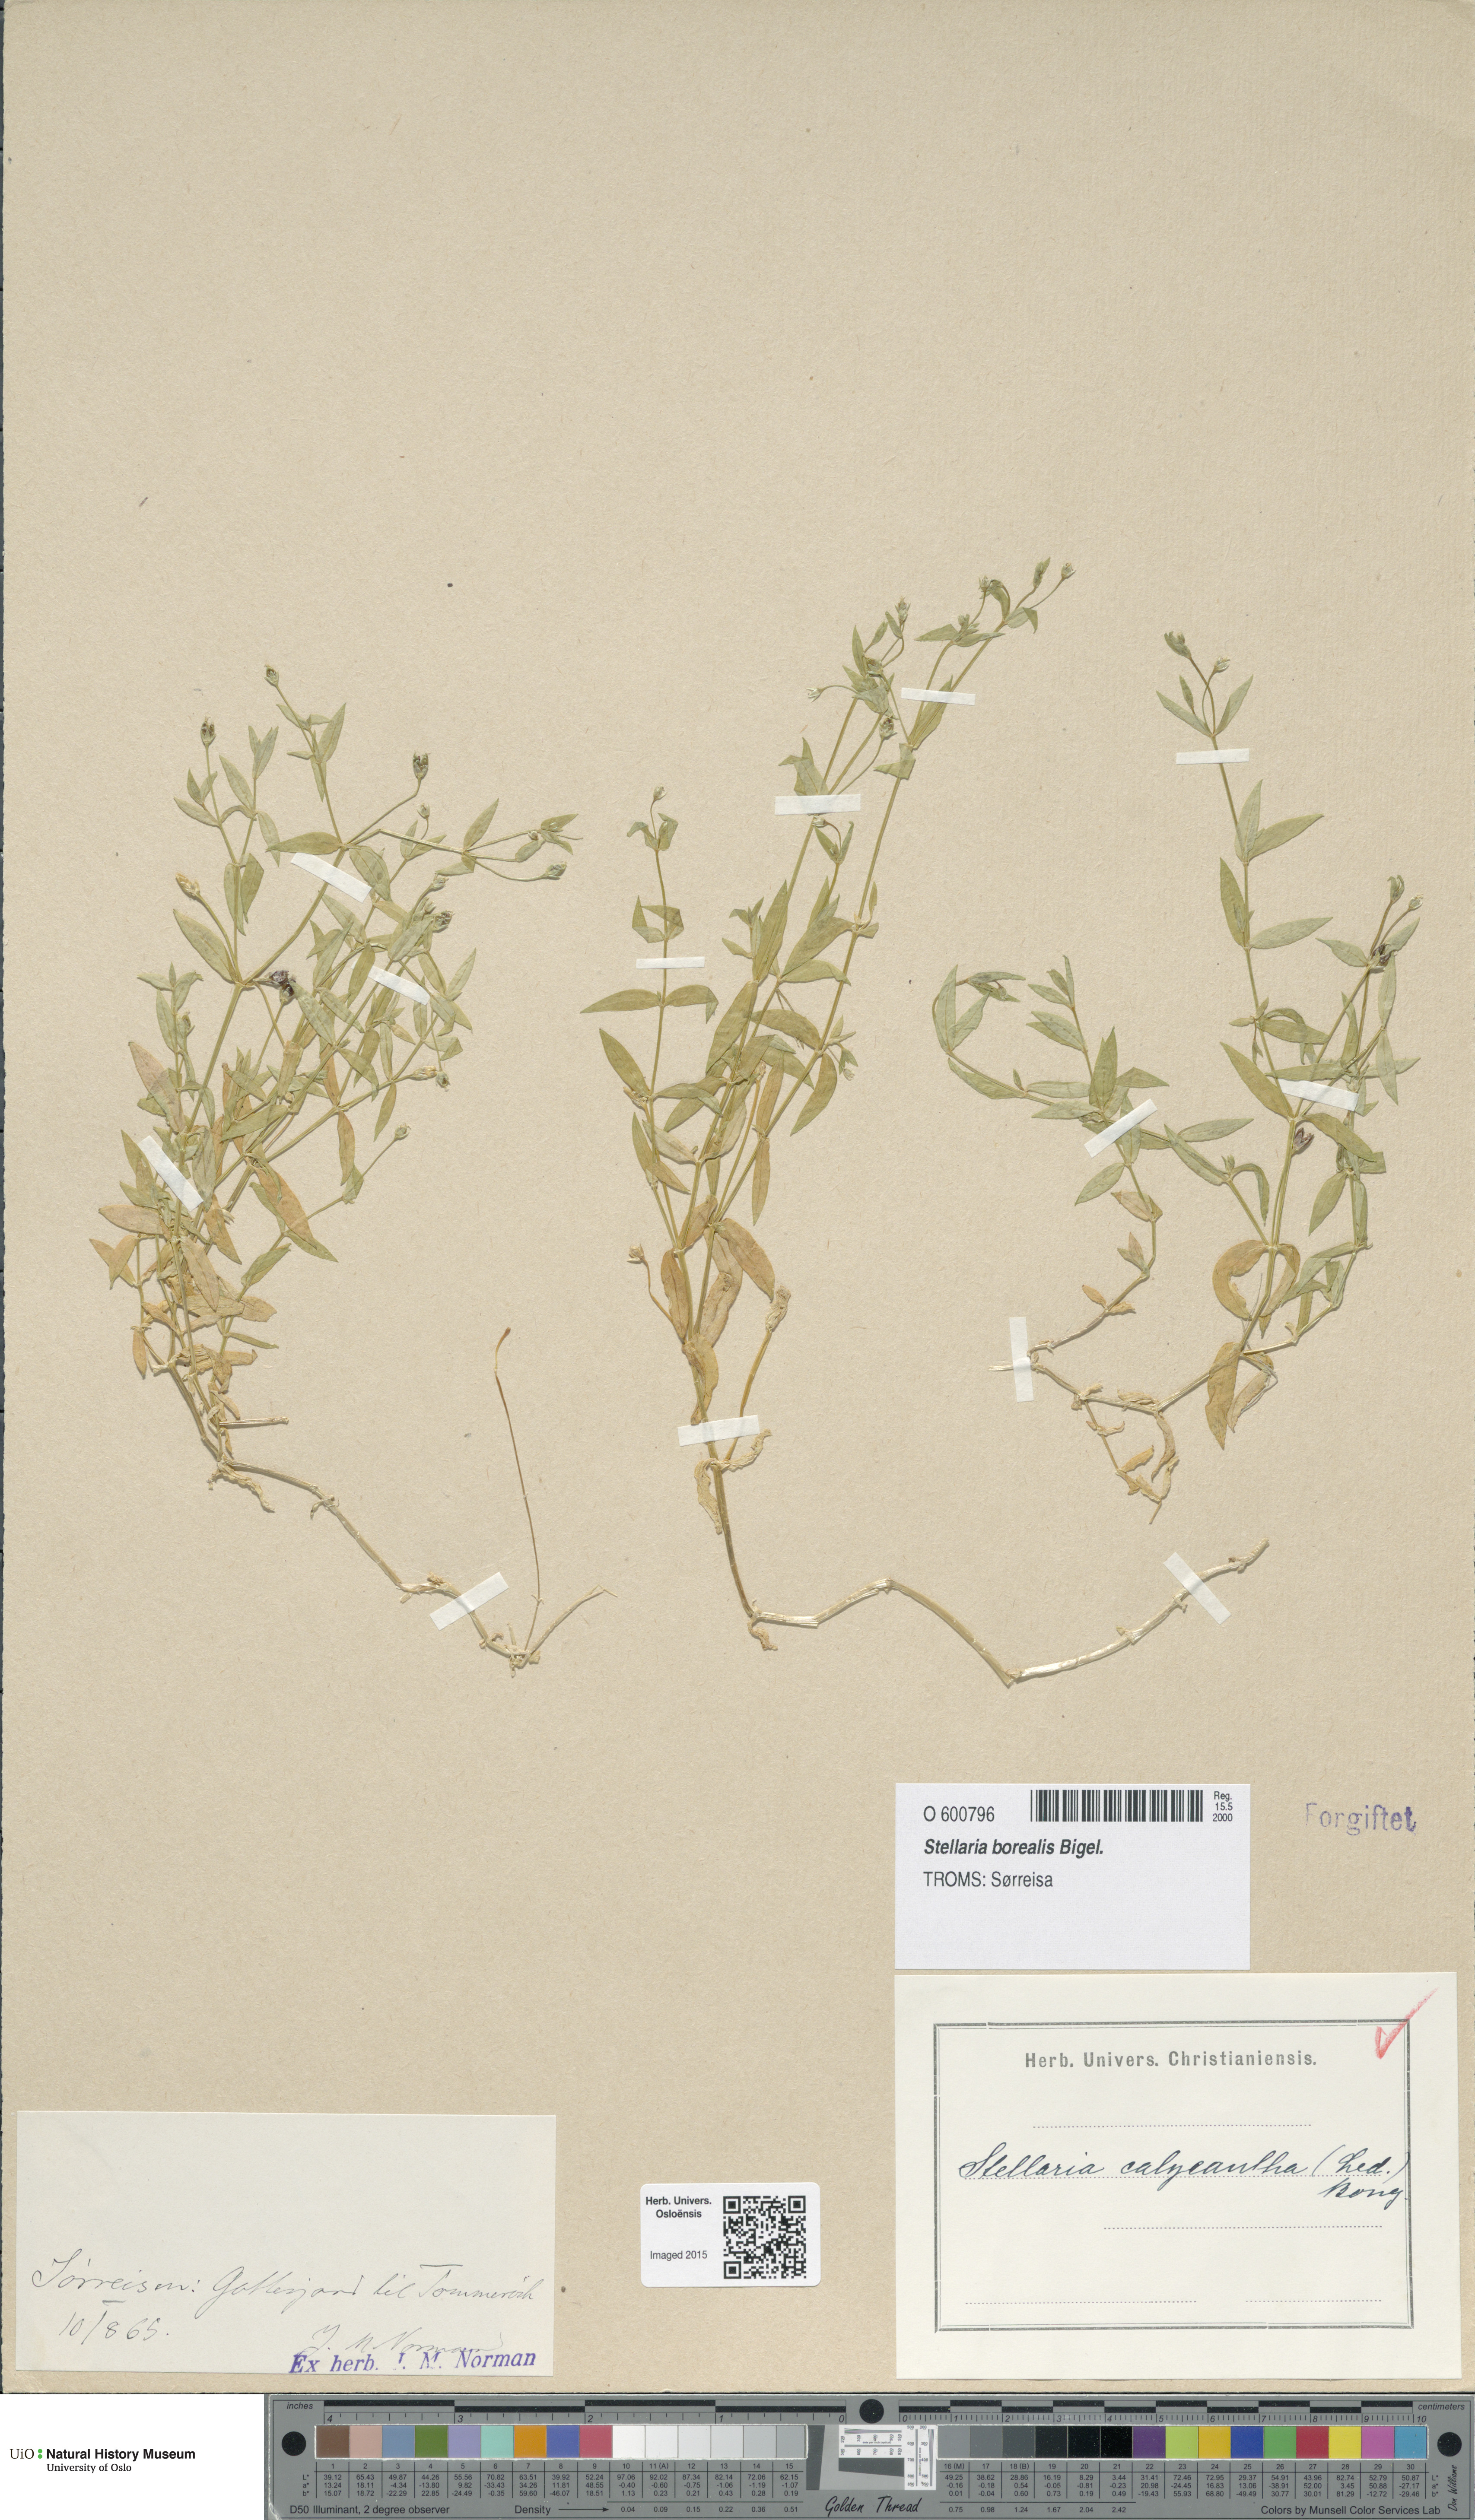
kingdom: Plantae
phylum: Tracheophyta
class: Magnoliopsida
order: Caryophyllales
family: Caryophyllaceae
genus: Stellaria
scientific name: Stellaria borealis
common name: Boreal starwort
